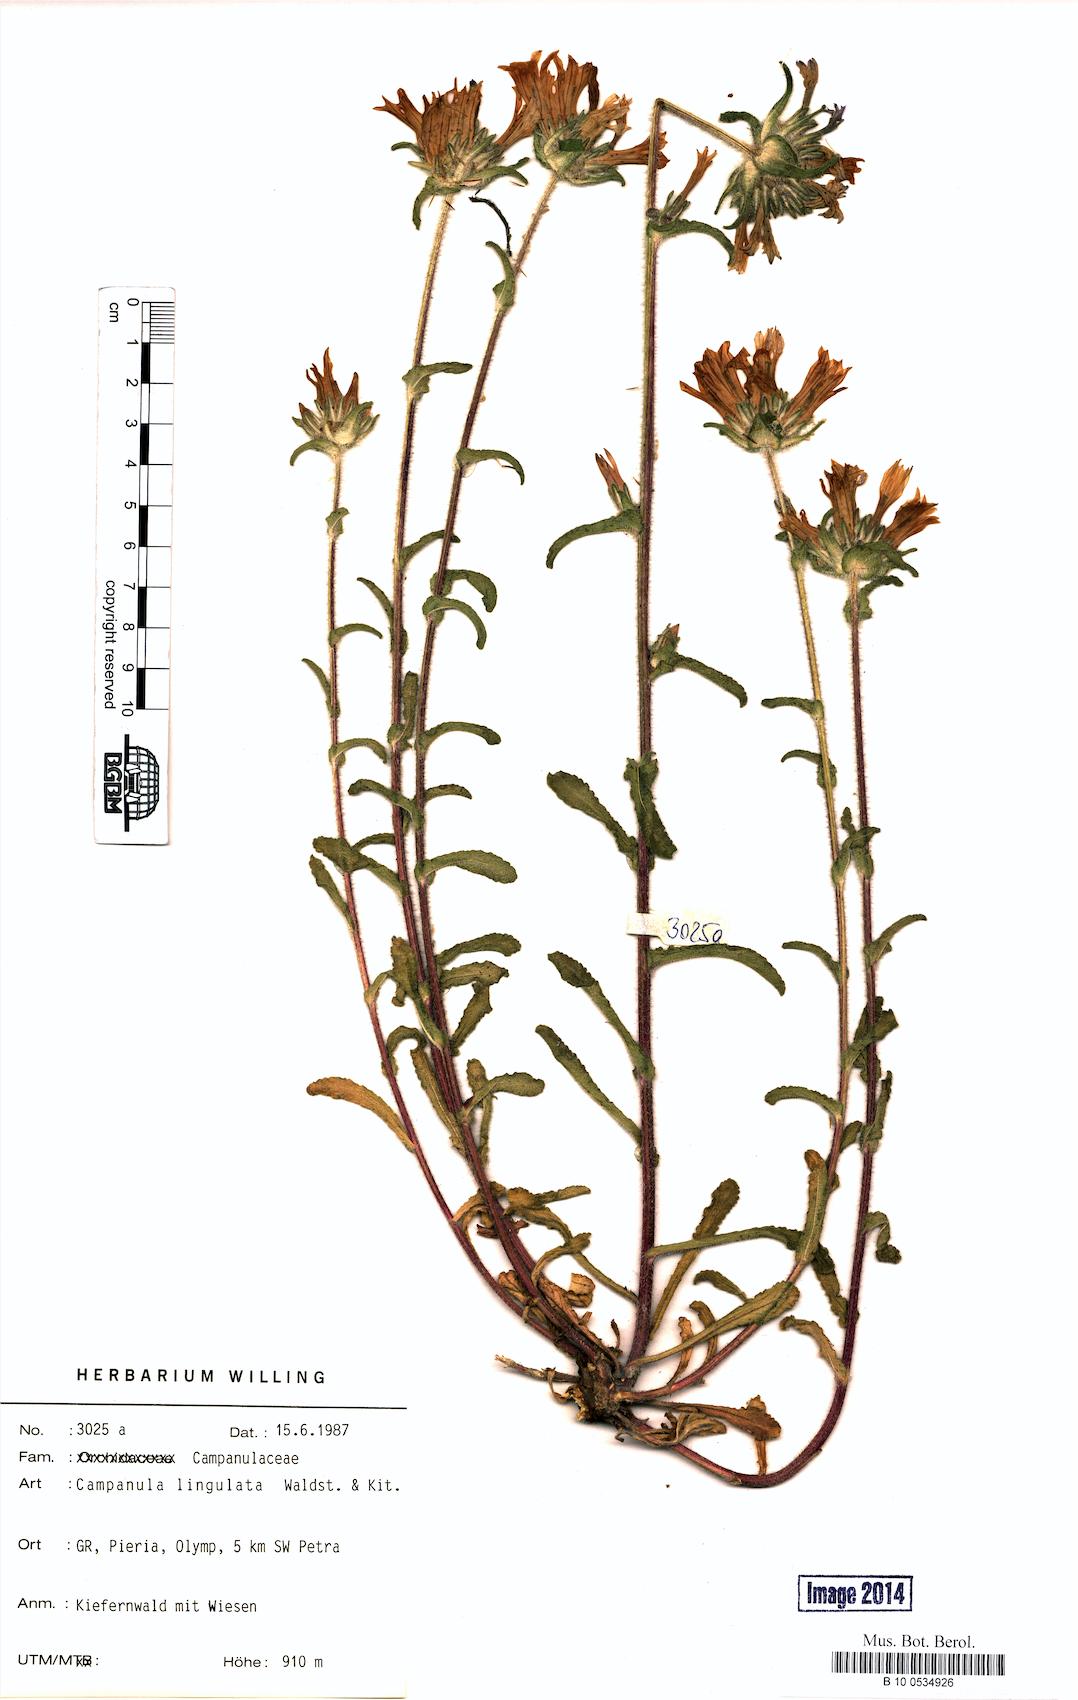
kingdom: Plantae
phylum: Tracheophyta
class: Magnoliopsida
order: Asterales
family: Campanulaceae
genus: Campanula
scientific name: Campanula lingulata
